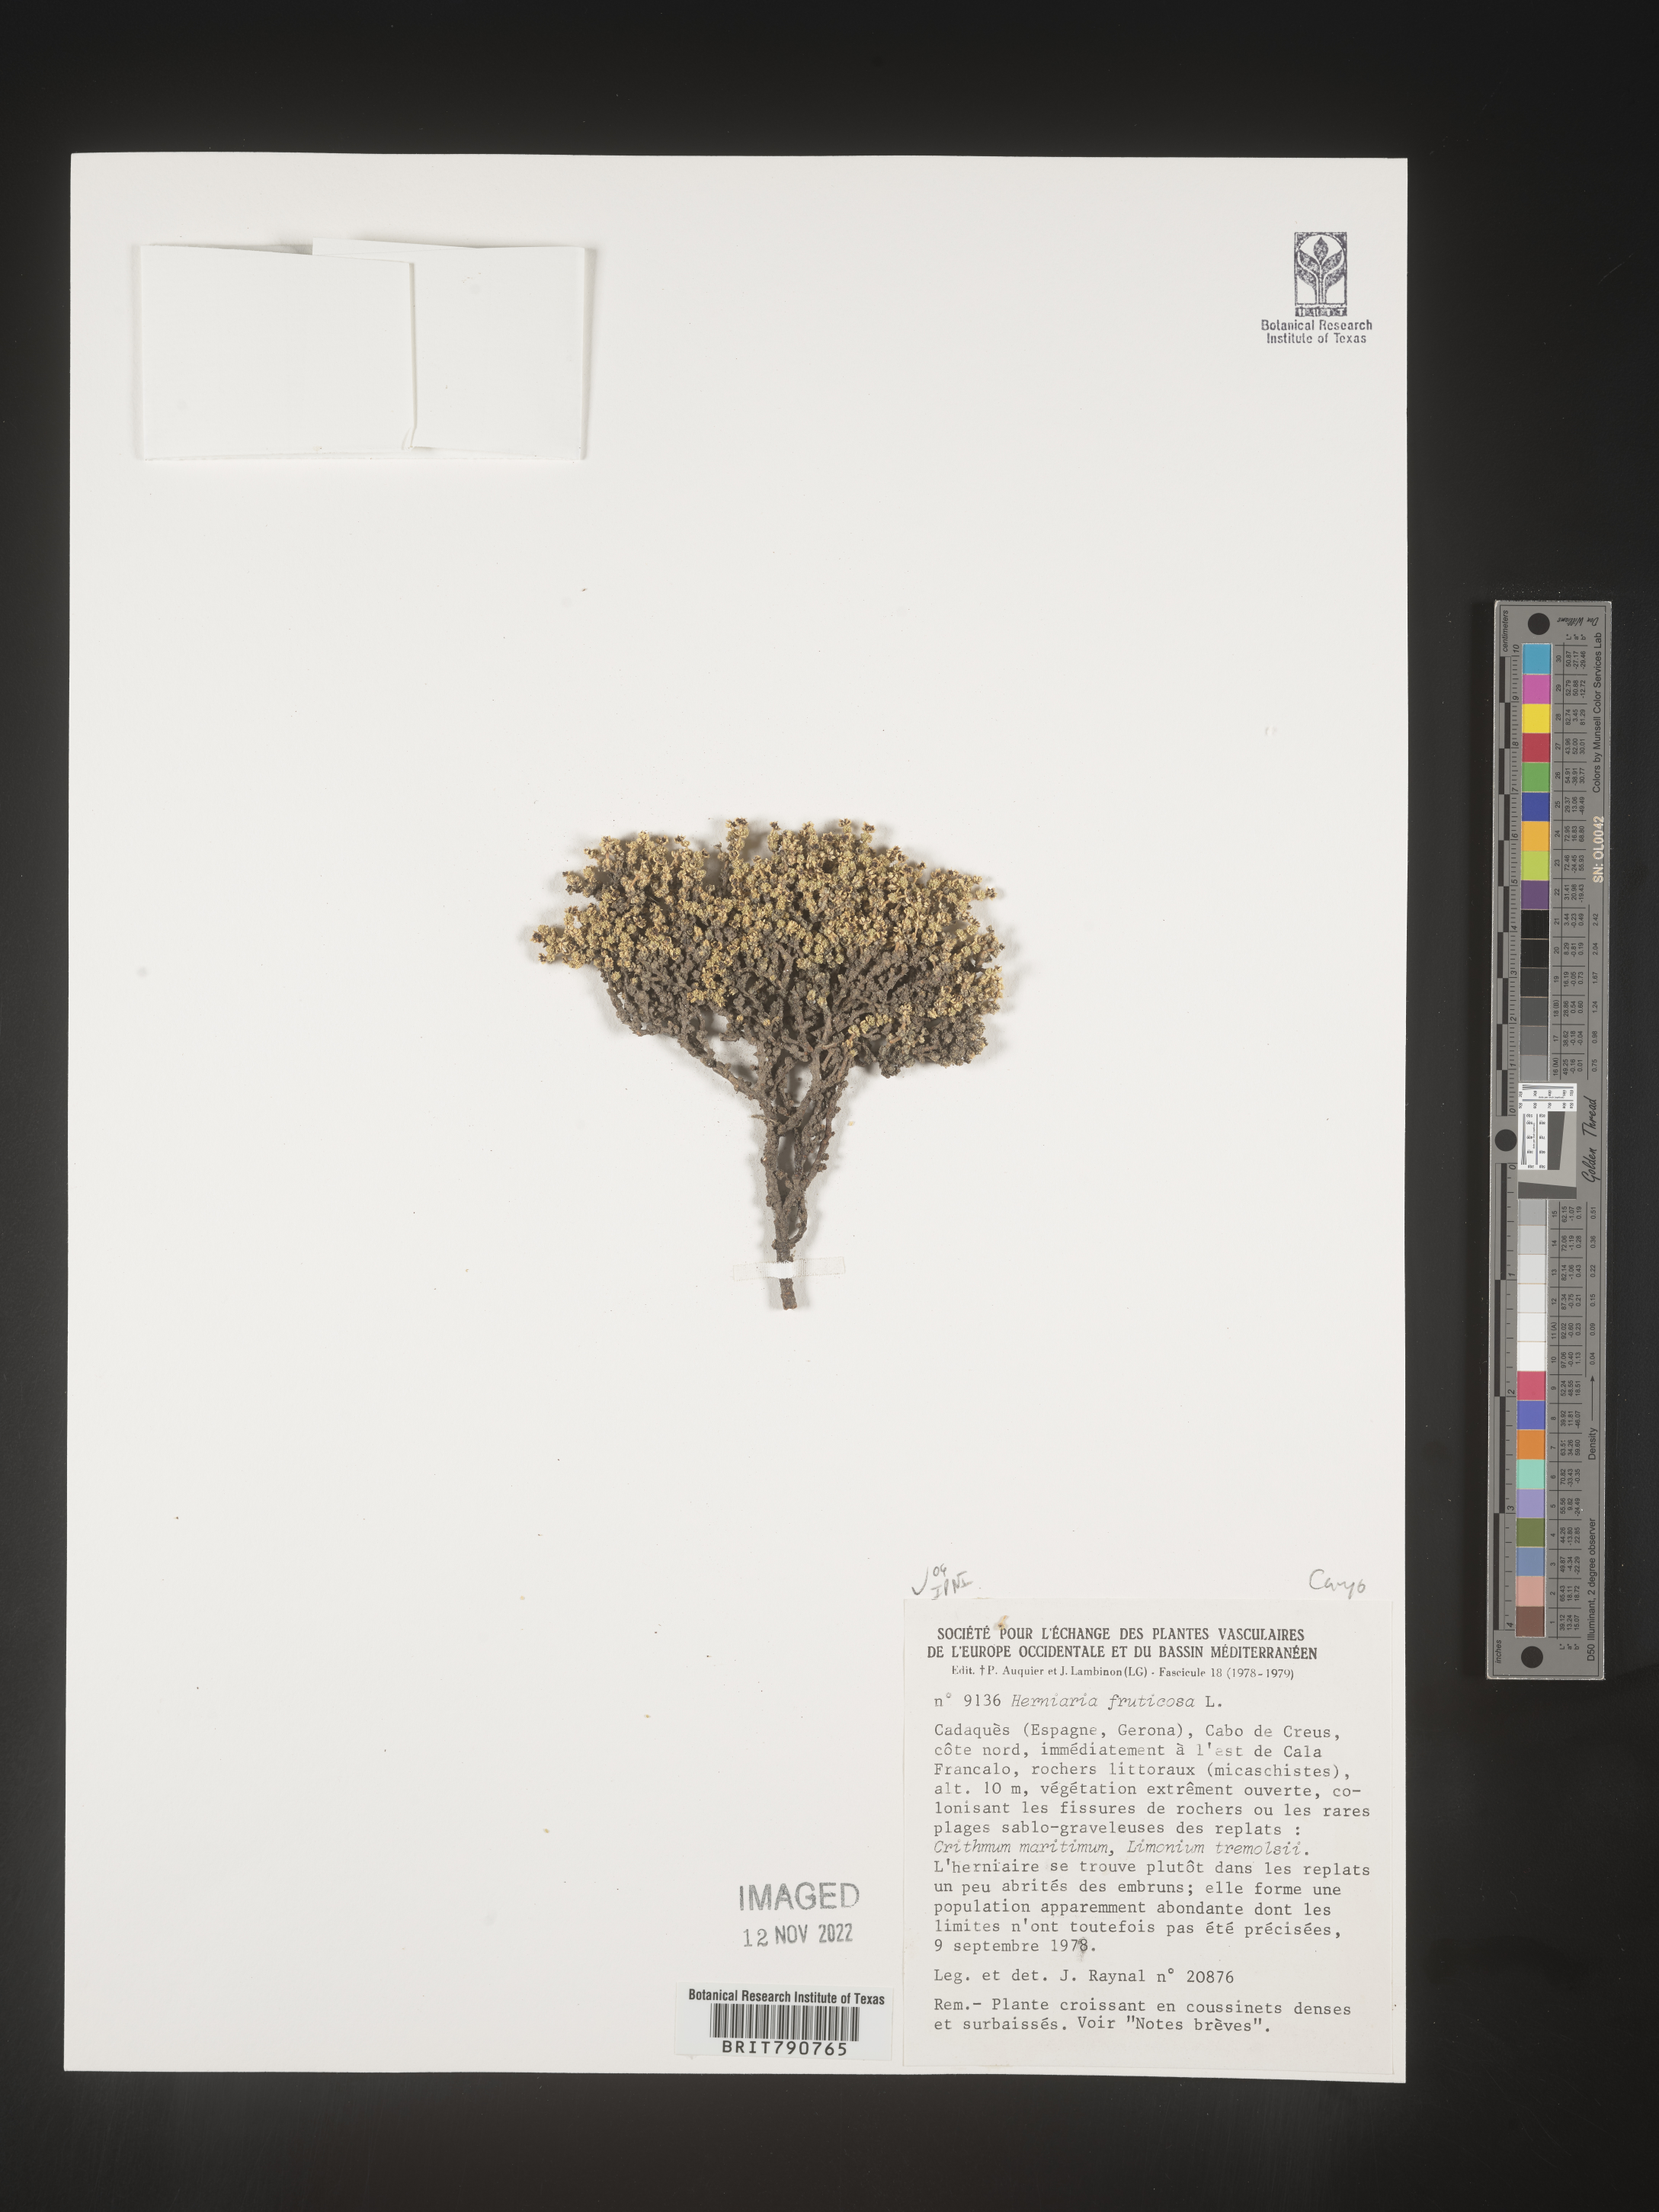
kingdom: Plantae
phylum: Tracheophyta
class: Magnoliopsida
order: Caryophyllales
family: Caryophyllaceae
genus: Herniaria
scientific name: Herniaria
